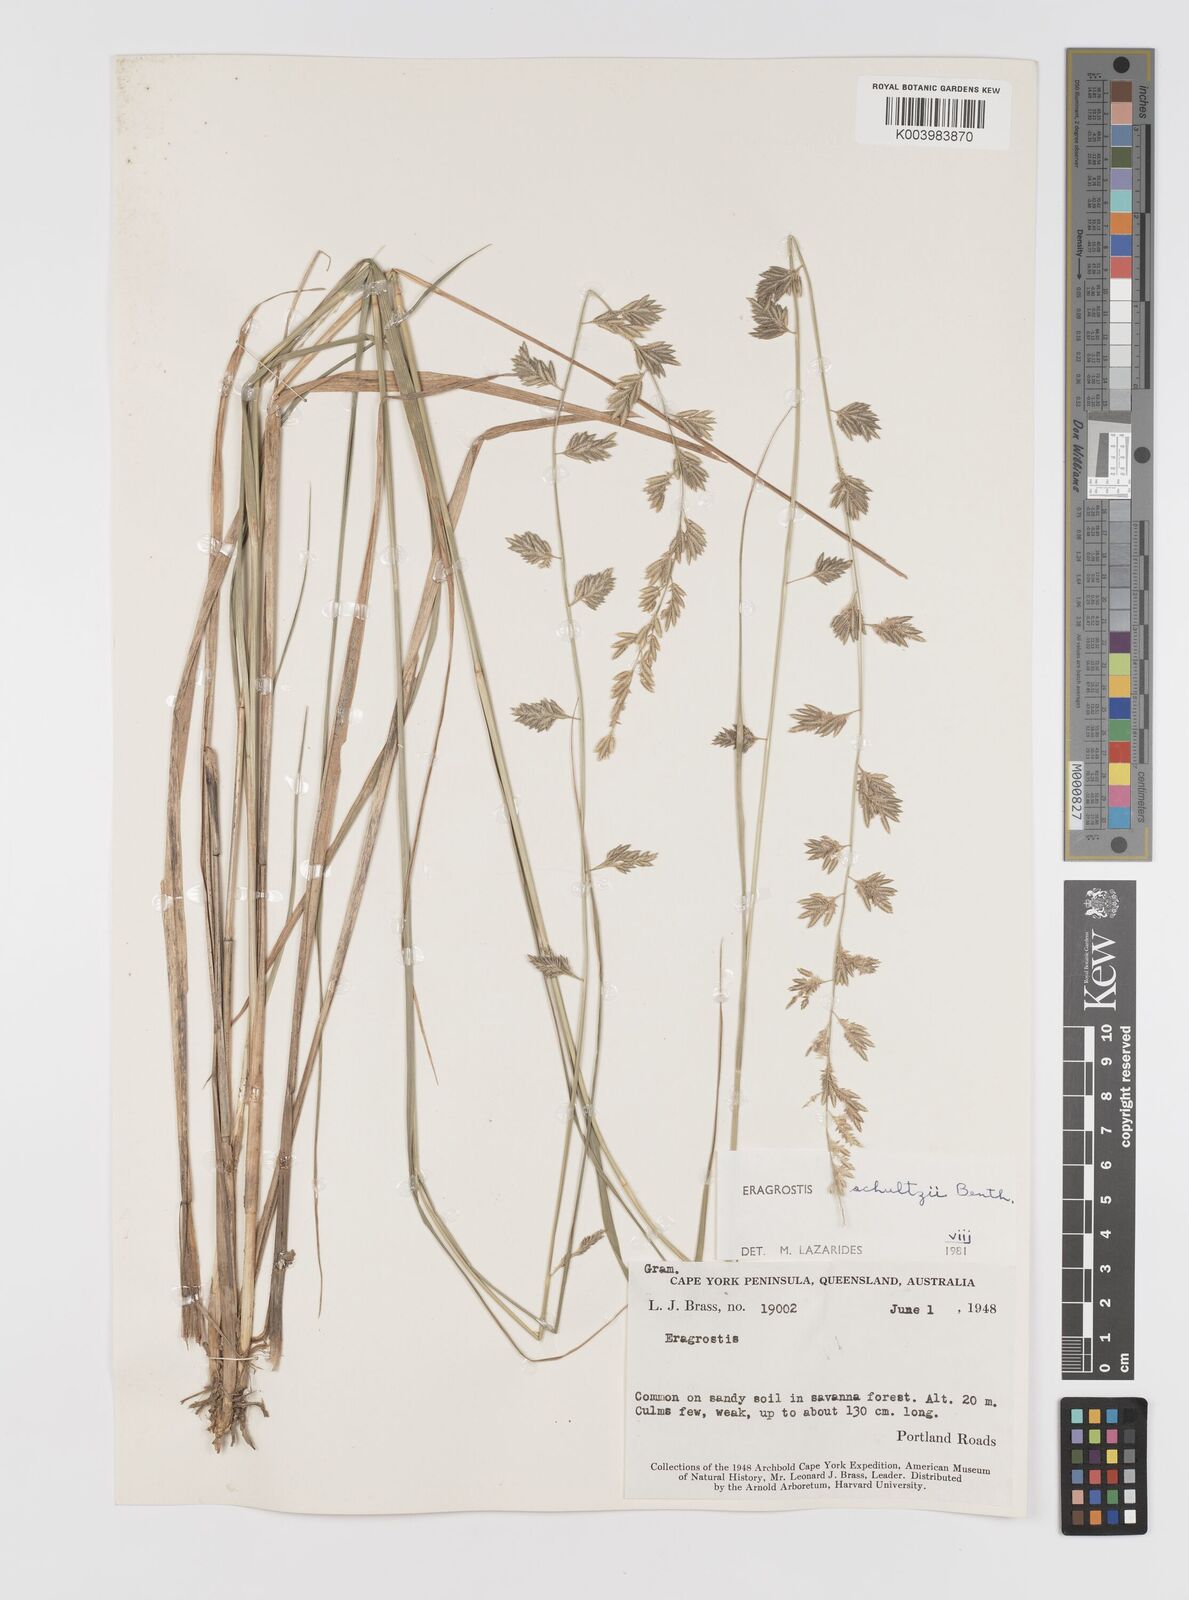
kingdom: Plantae
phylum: Tracheophyta
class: Liliopsida
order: Poales
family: Poaceae
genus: Eragrostis
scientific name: Eragrostis schultzii
